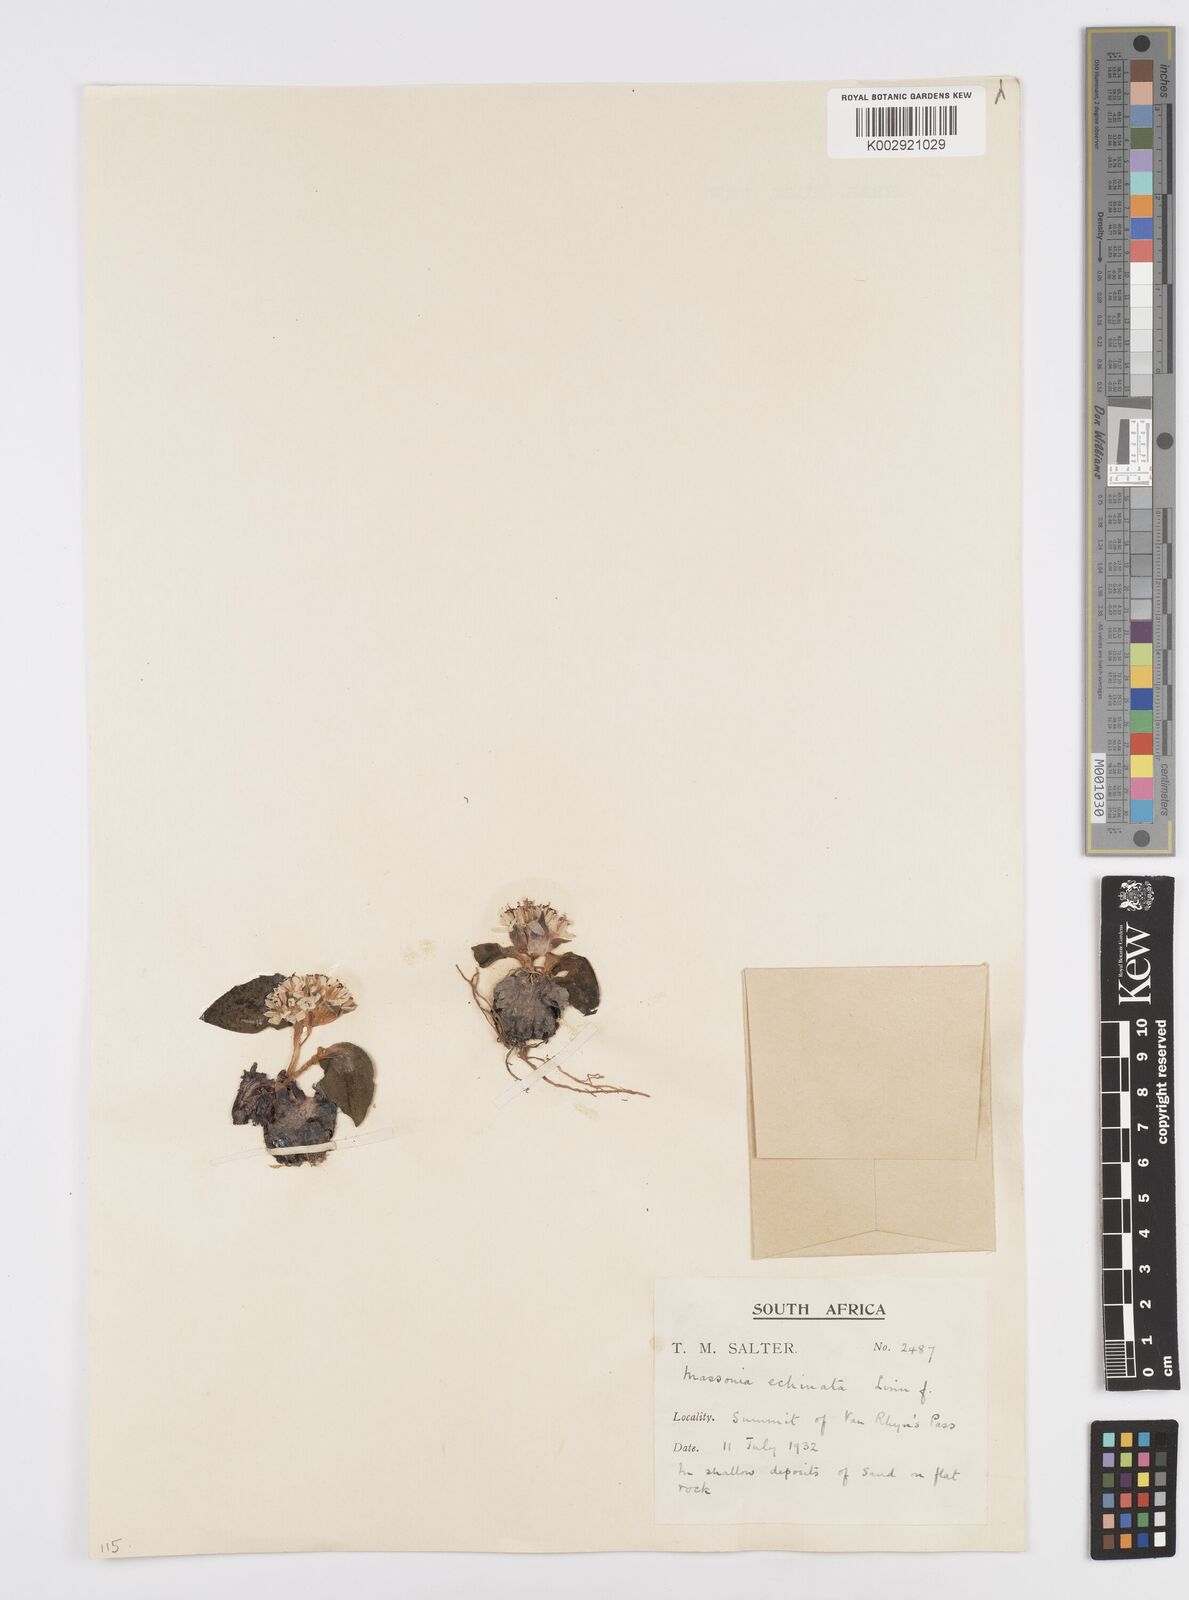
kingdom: Plantae
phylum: Tracheophyta
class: Liliopsida
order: Asparagales
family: Asparagaceae
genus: Massonia
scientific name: Massonia
